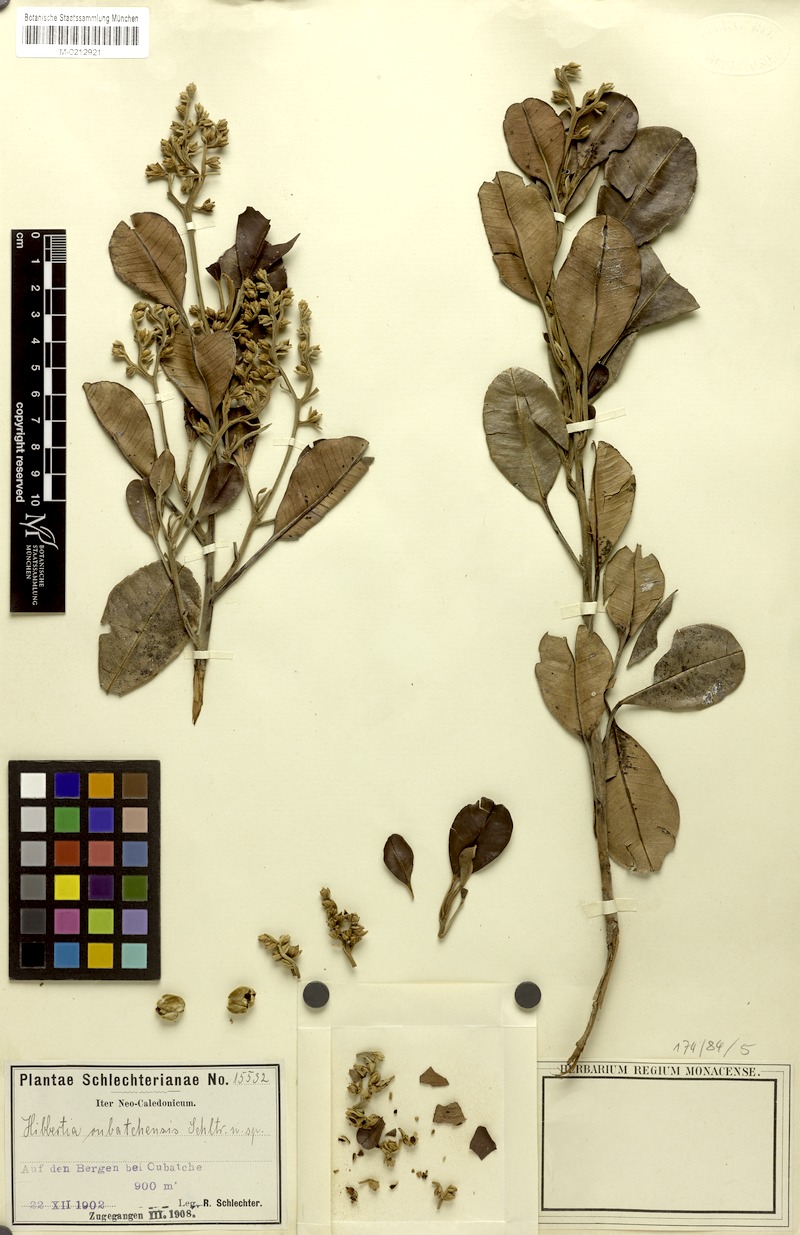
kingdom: Plantae
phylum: Tracheophyta
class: Magnoliopsida
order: Dilleniales
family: Dilleniaceae
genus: Hibbertia
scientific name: Hibbertia pancheri
